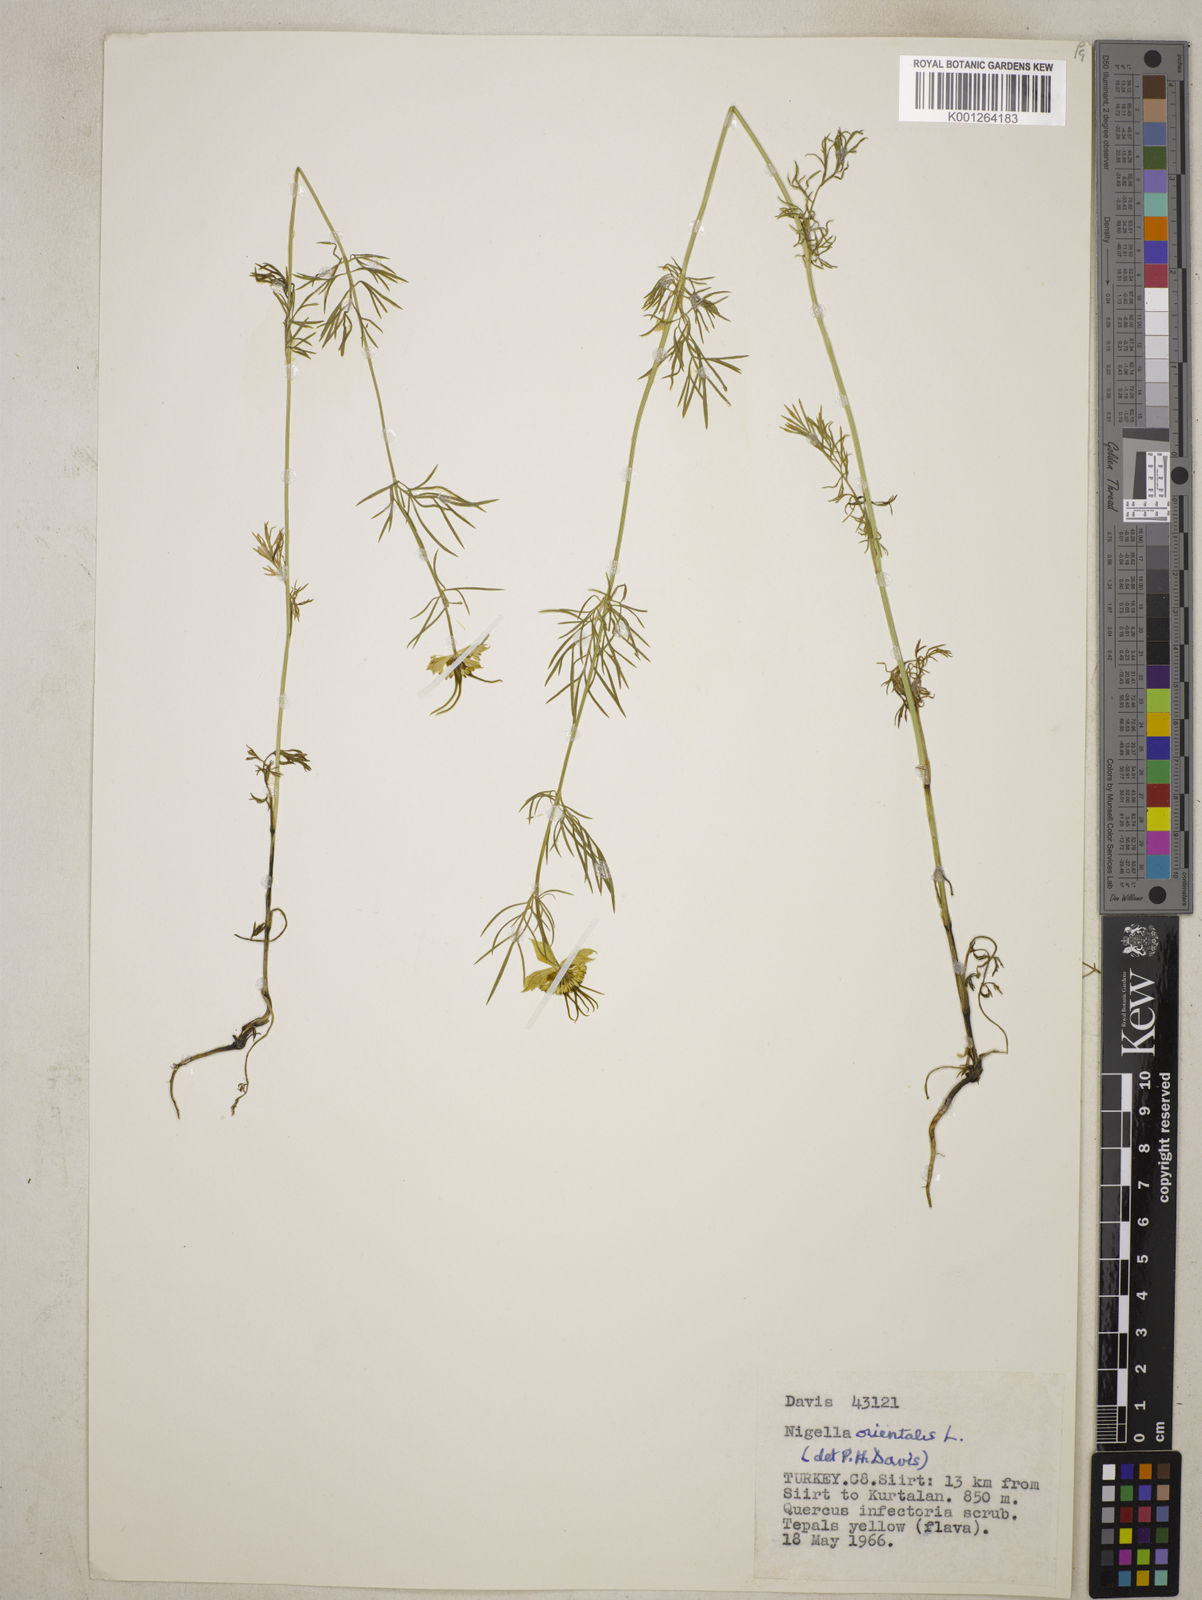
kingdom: Plantae
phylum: Tracheophyta
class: Magnoliopsida
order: Ranunculales
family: Ranunculaceae
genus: Nigella
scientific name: Nigella orientalis
